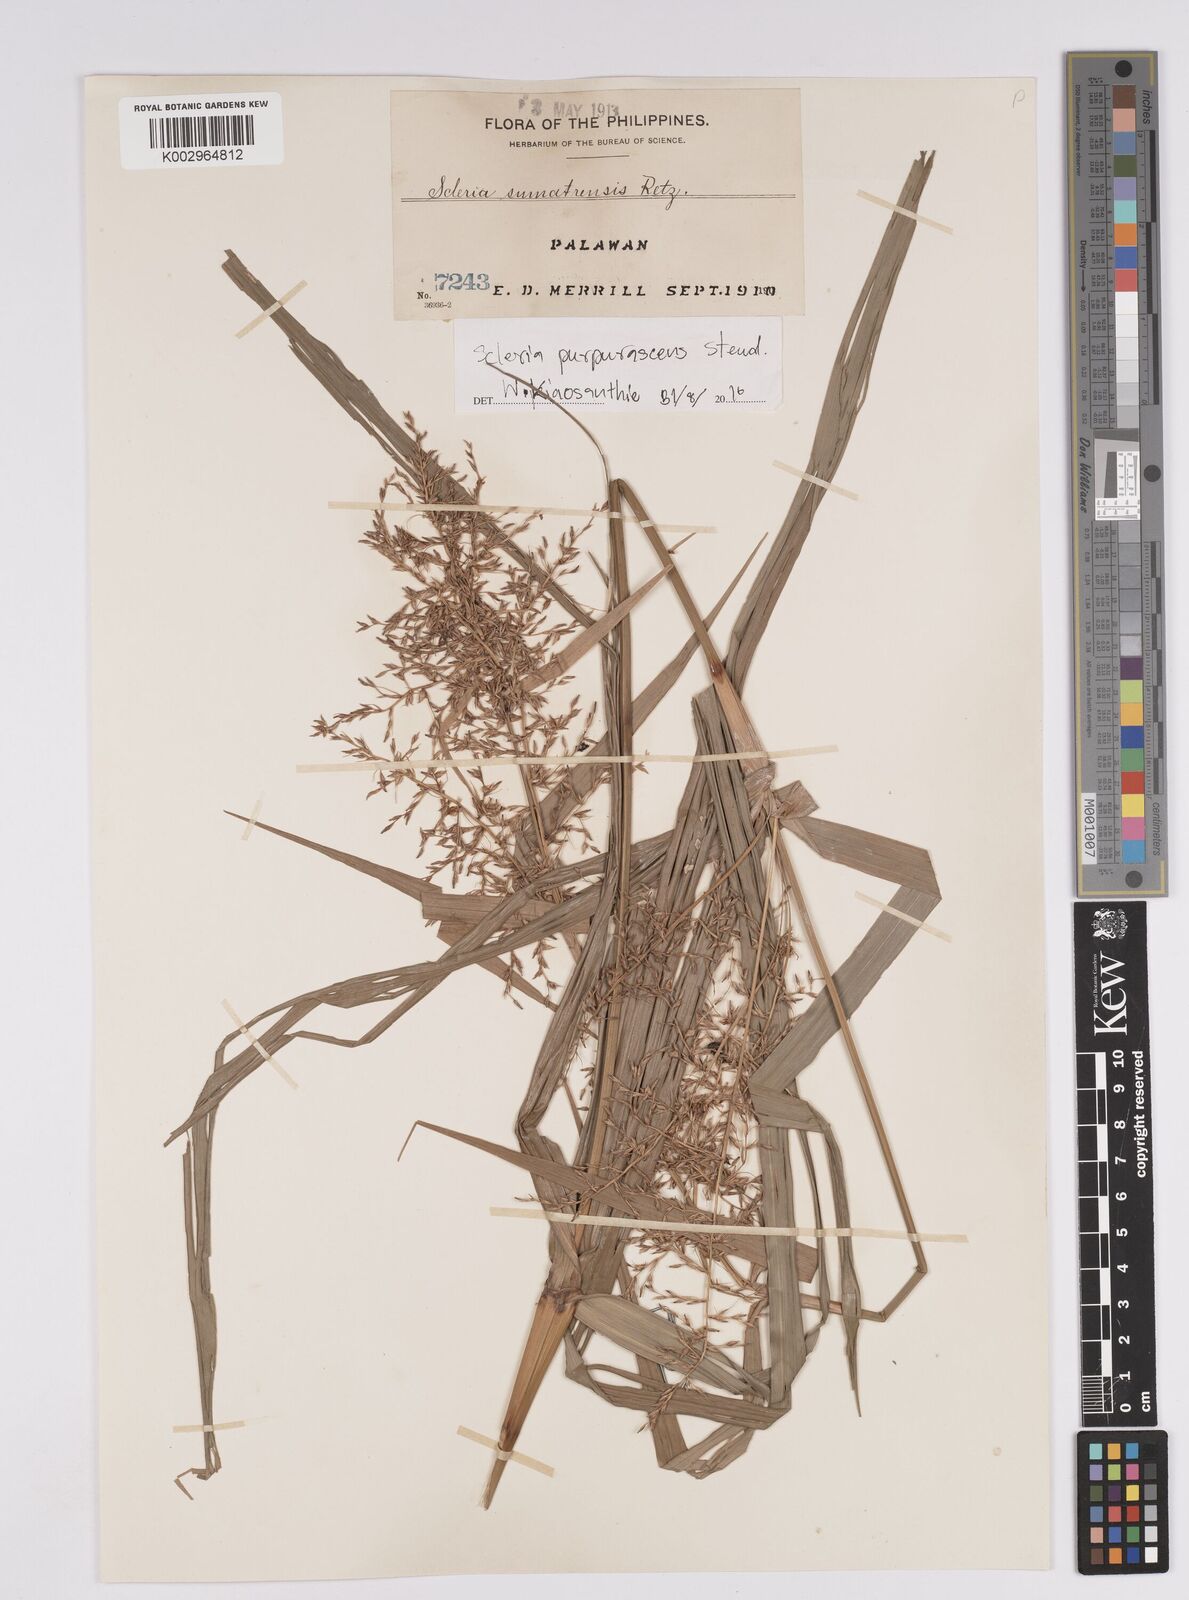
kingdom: Plantae
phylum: Tracheophyta
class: Liliopsida
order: Poales
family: Cyperaceae
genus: Scleria
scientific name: Scleria purpurascens
